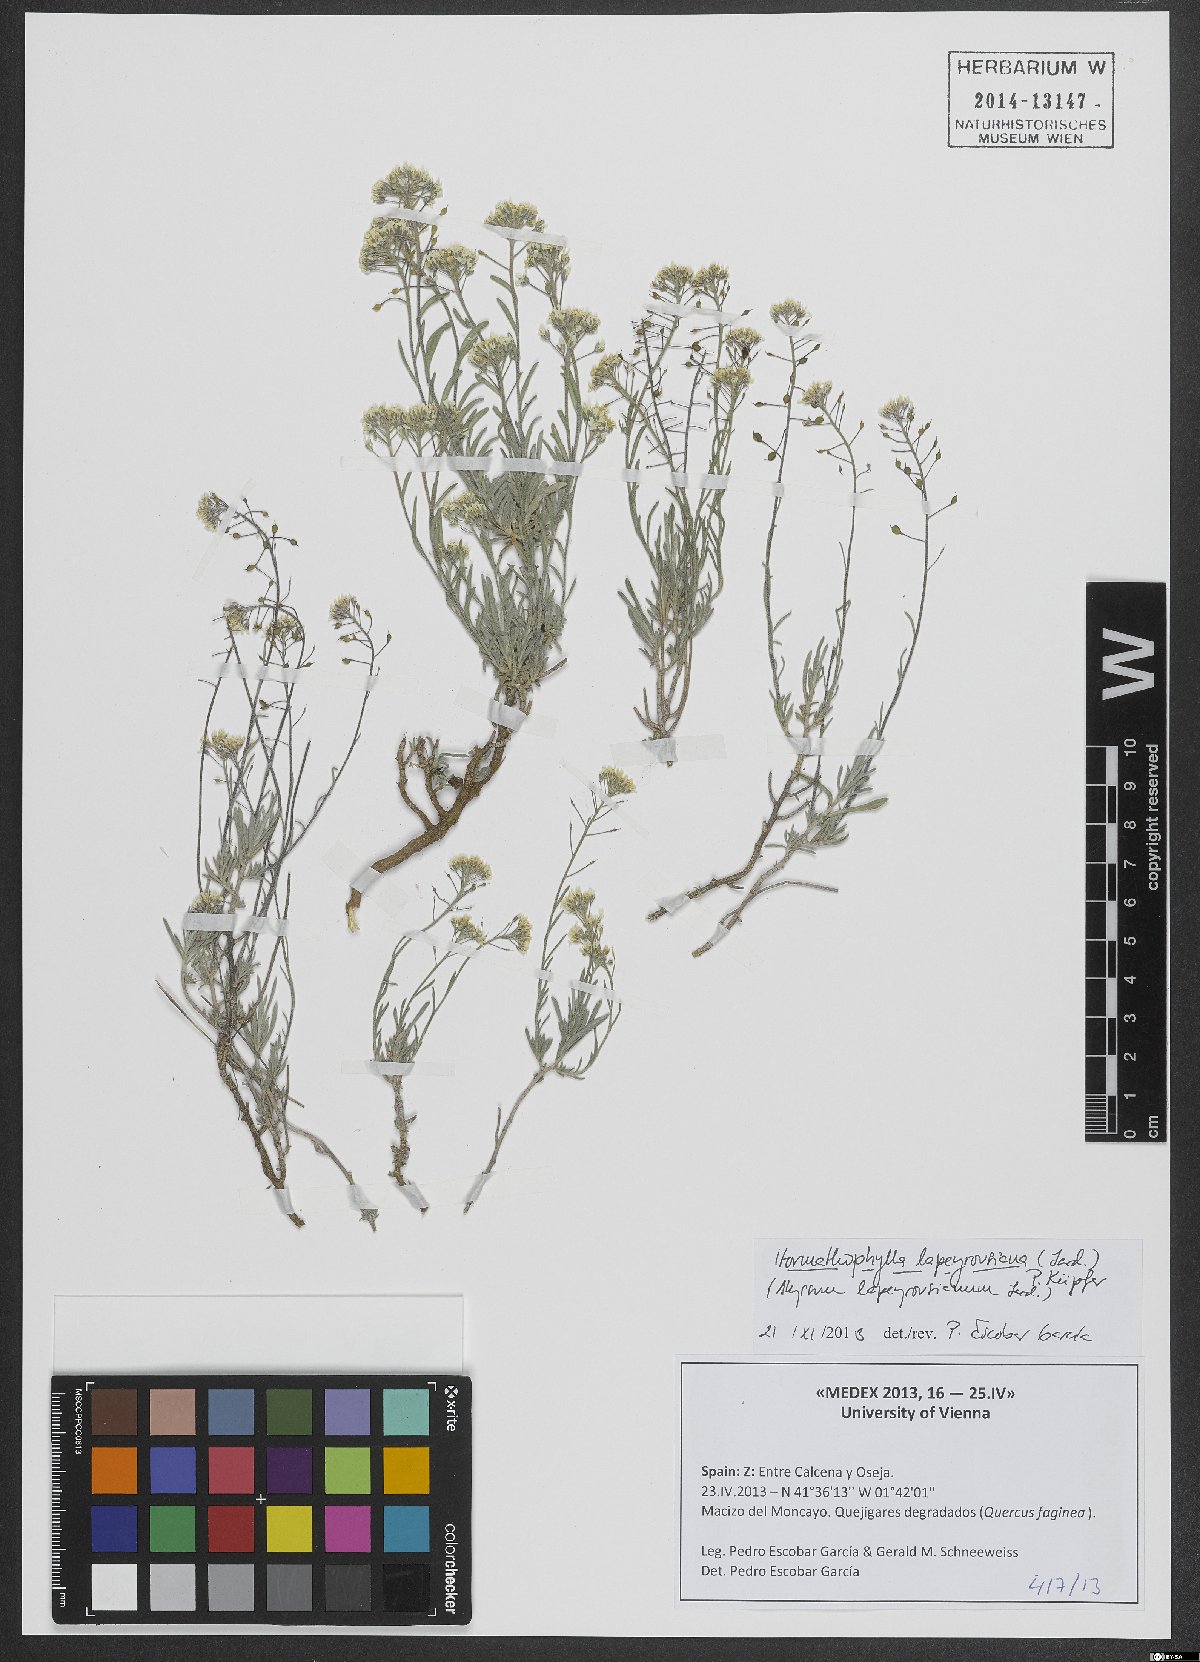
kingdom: Plantae
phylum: Tracheophyta
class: Magnoliopsida
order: Brassicales
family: Brassicaceae
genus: Hormathophylla
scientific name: Hormathophylla lapeyrousiana
